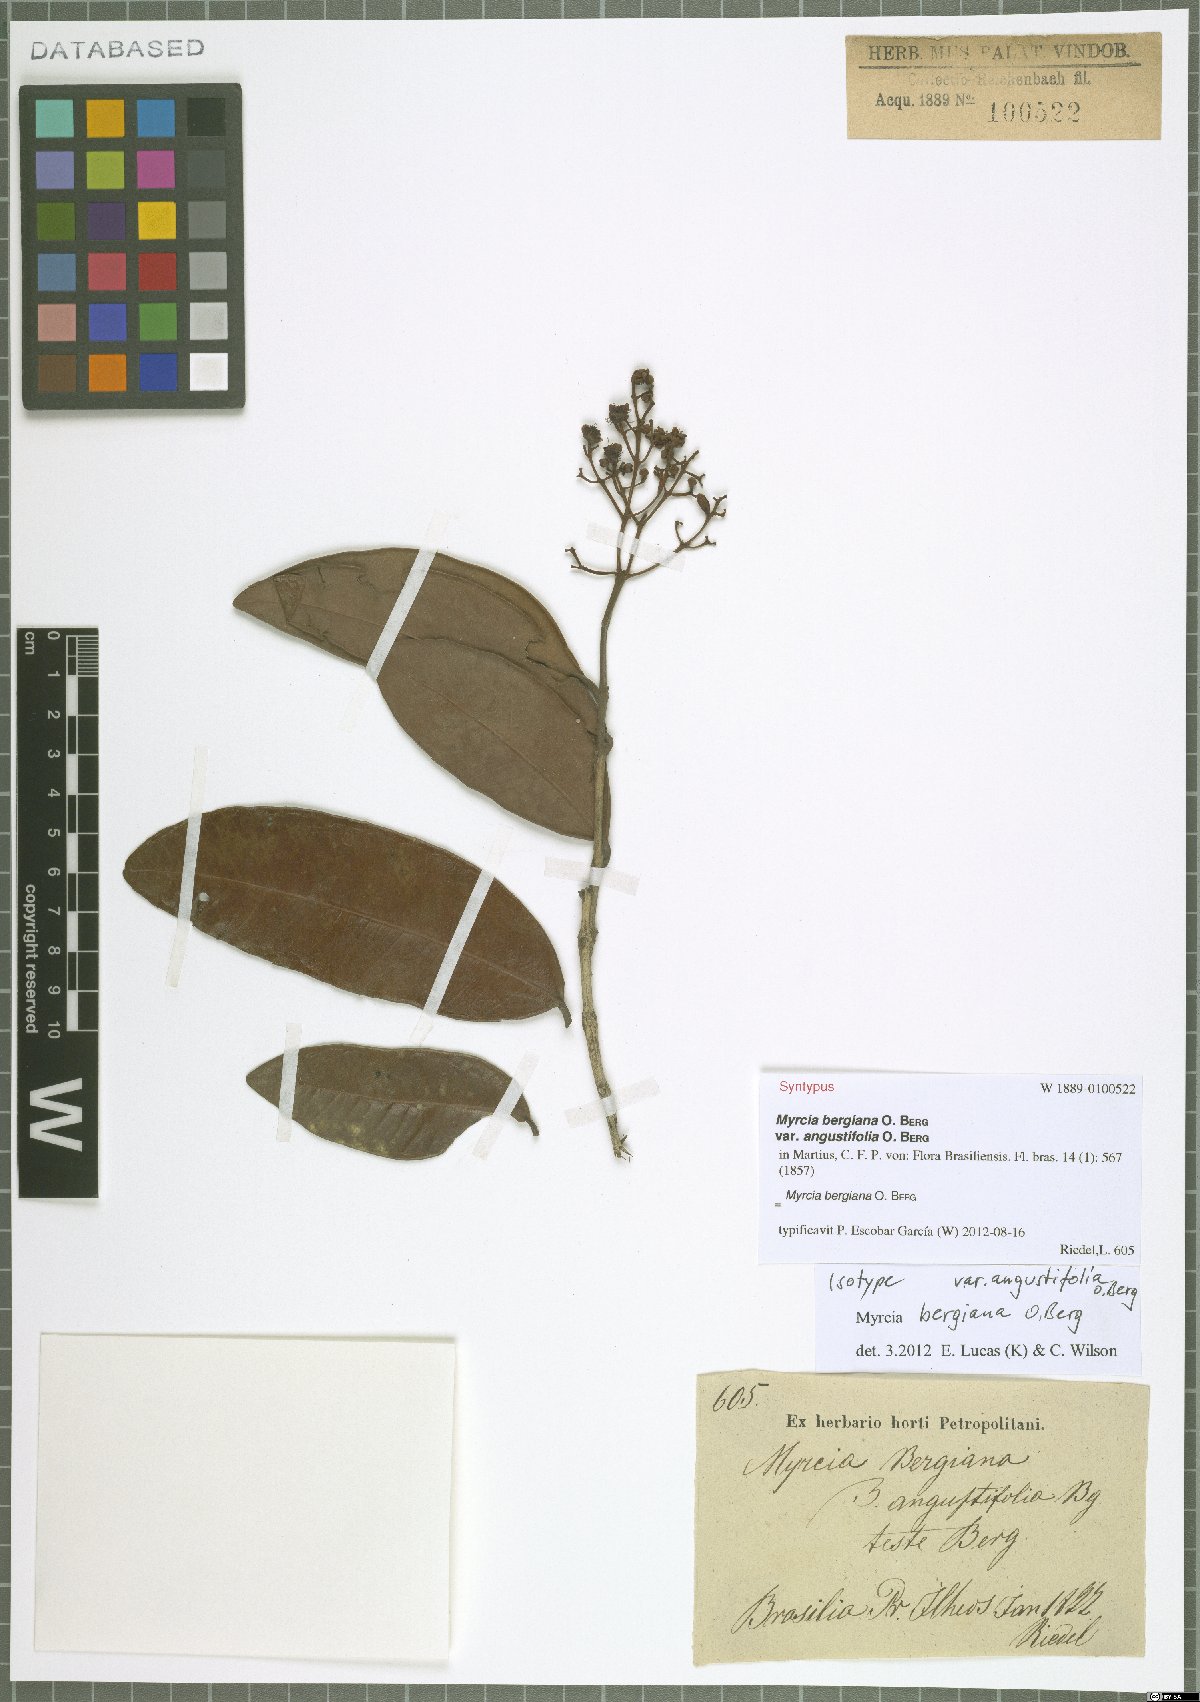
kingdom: Plantae
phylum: Tracheophyta
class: Magnoliopsida
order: Myrtales
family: Myrtaceae
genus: Myrcia
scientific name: Myrcia bergiana
